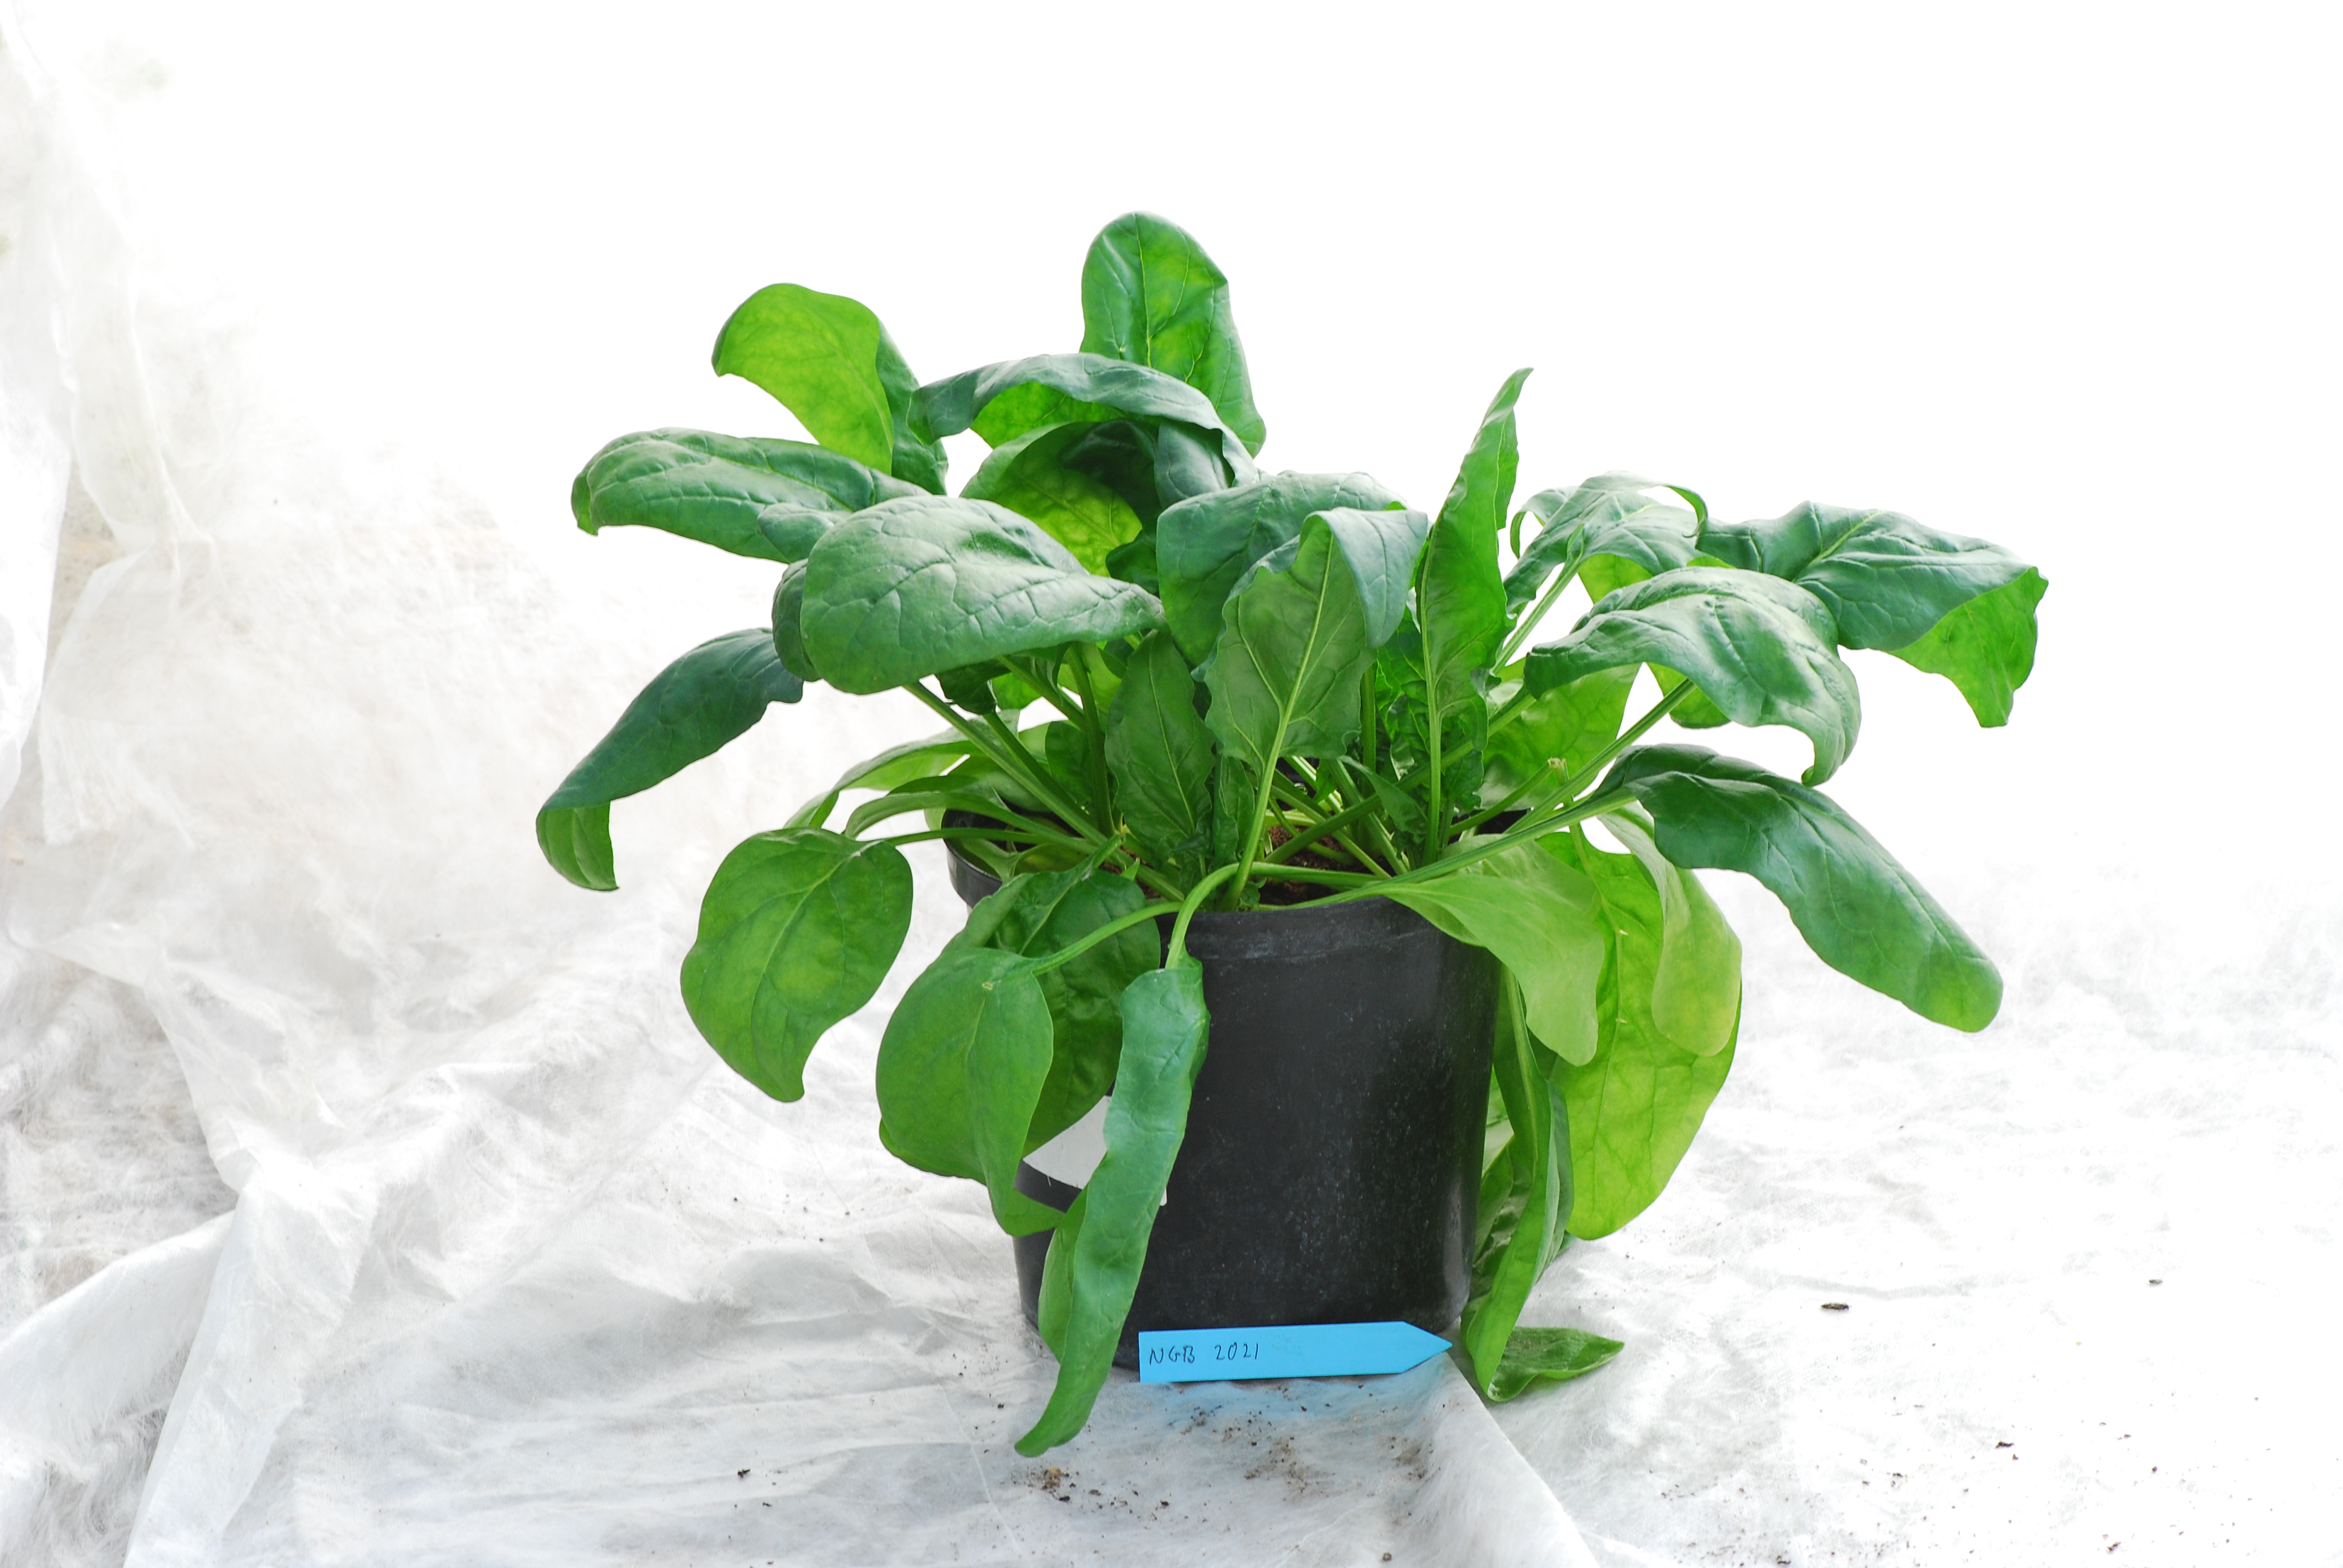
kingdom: Plantae
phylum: Tracheophyta
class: Magnoliopsida
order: Caryophyllales
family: Amaranthaceae
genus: Spinacia
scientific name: Spinacia oleracea
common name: Spinach
